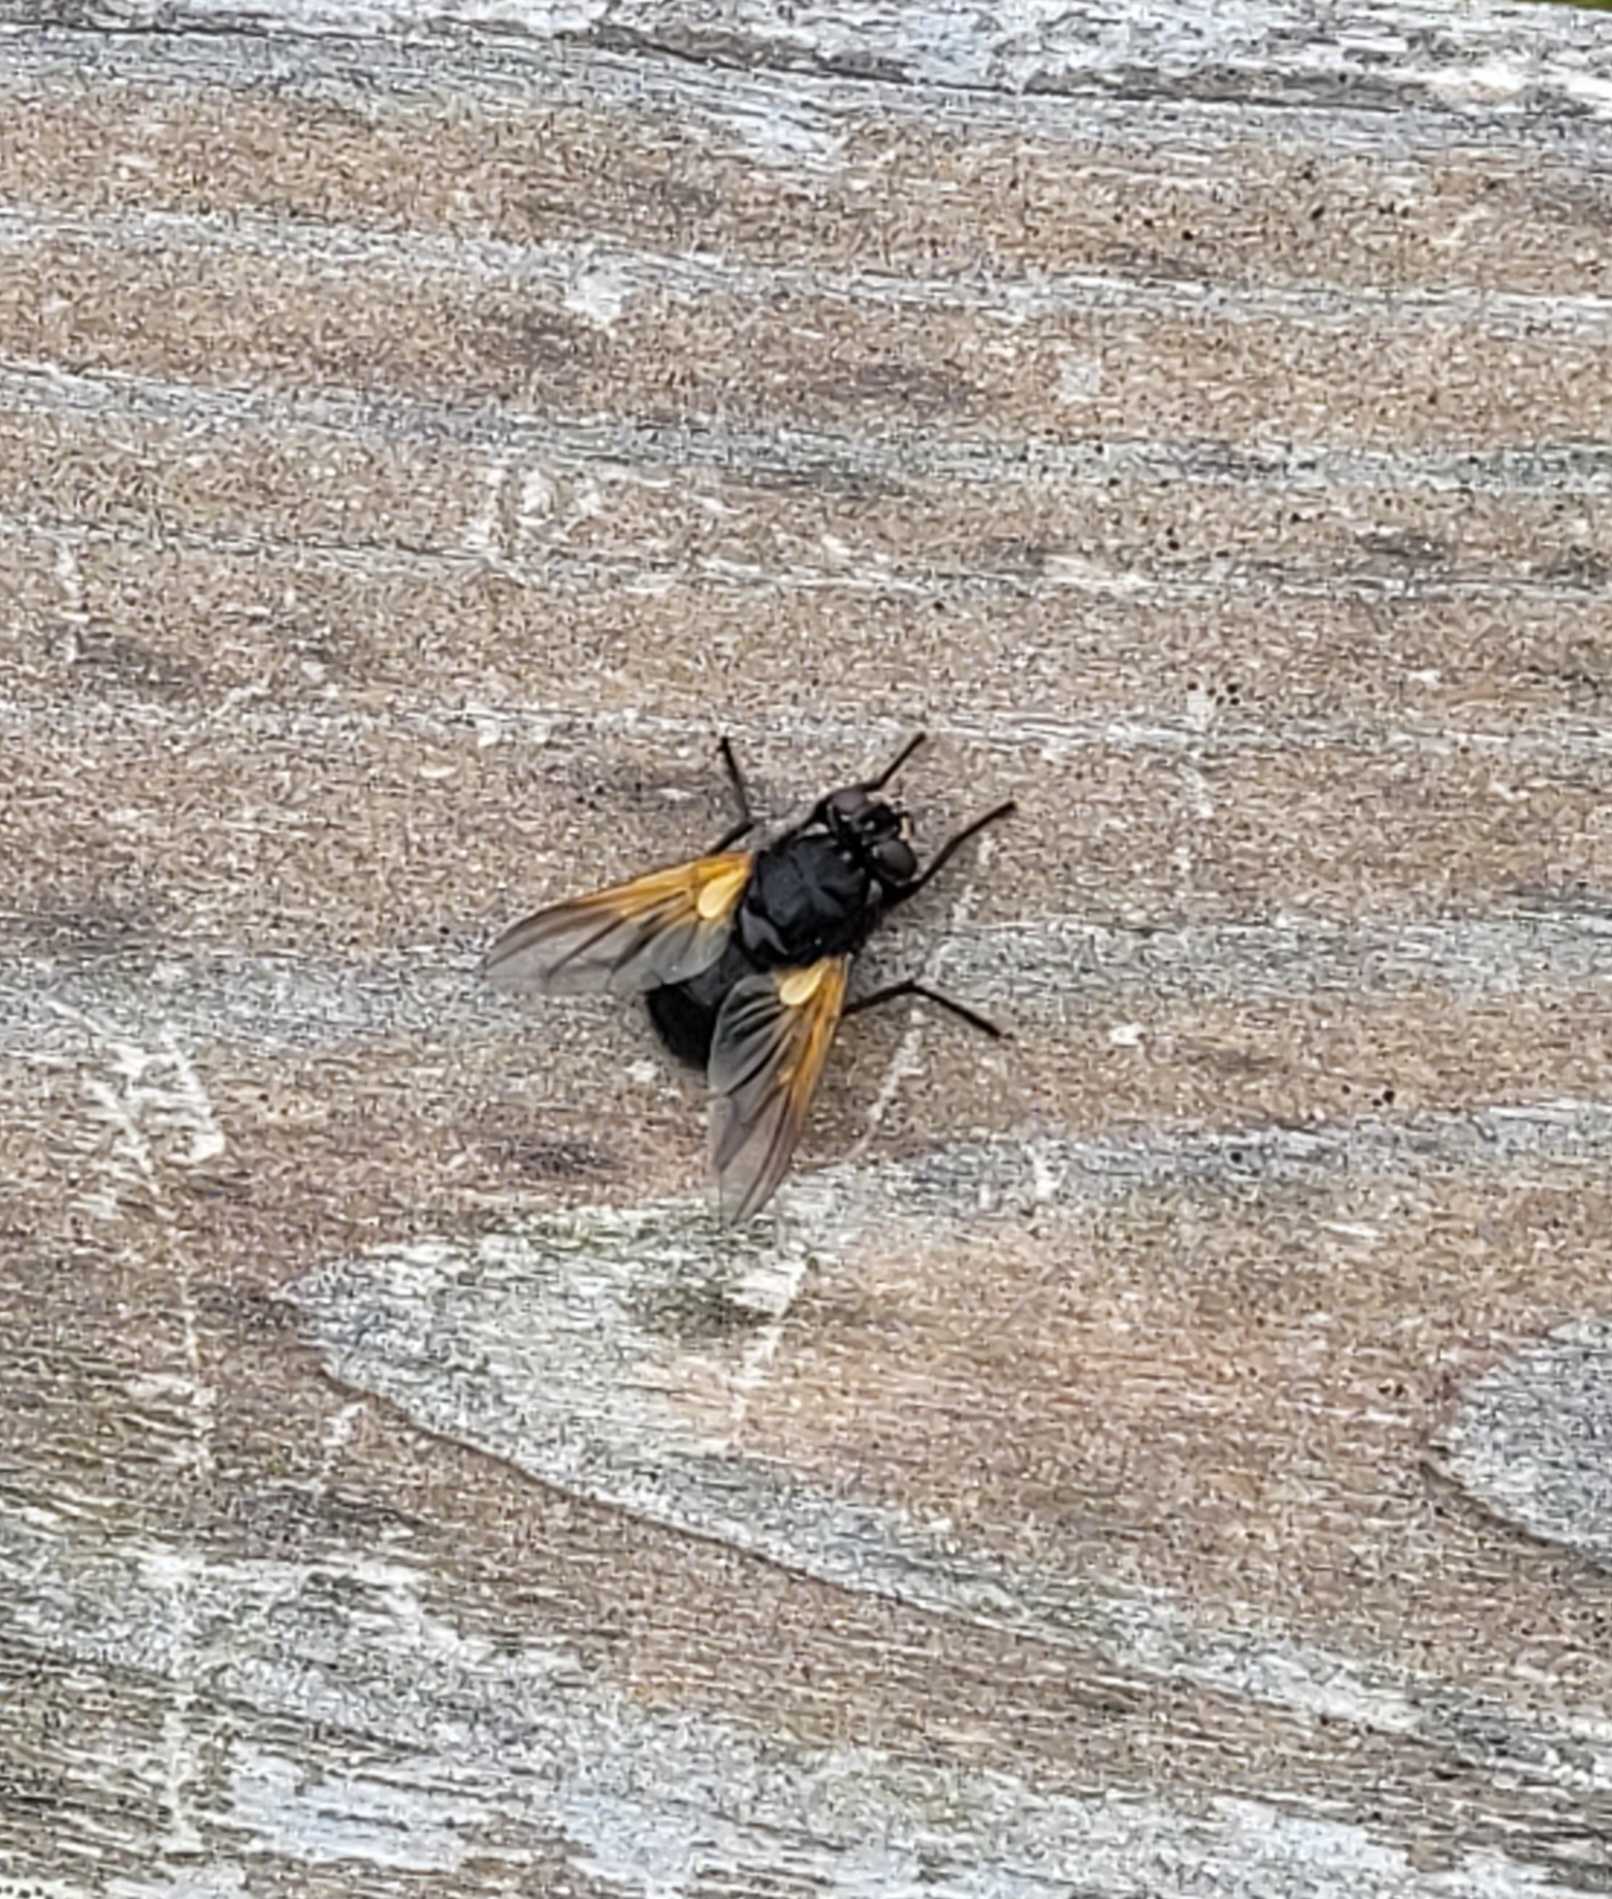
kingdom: Animalia
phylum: Arthropoda
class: Insecta
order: Diptera
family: Muscidae
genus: Mesembrina
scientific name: Mesembrina meridiana
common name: Gulvinget flue
